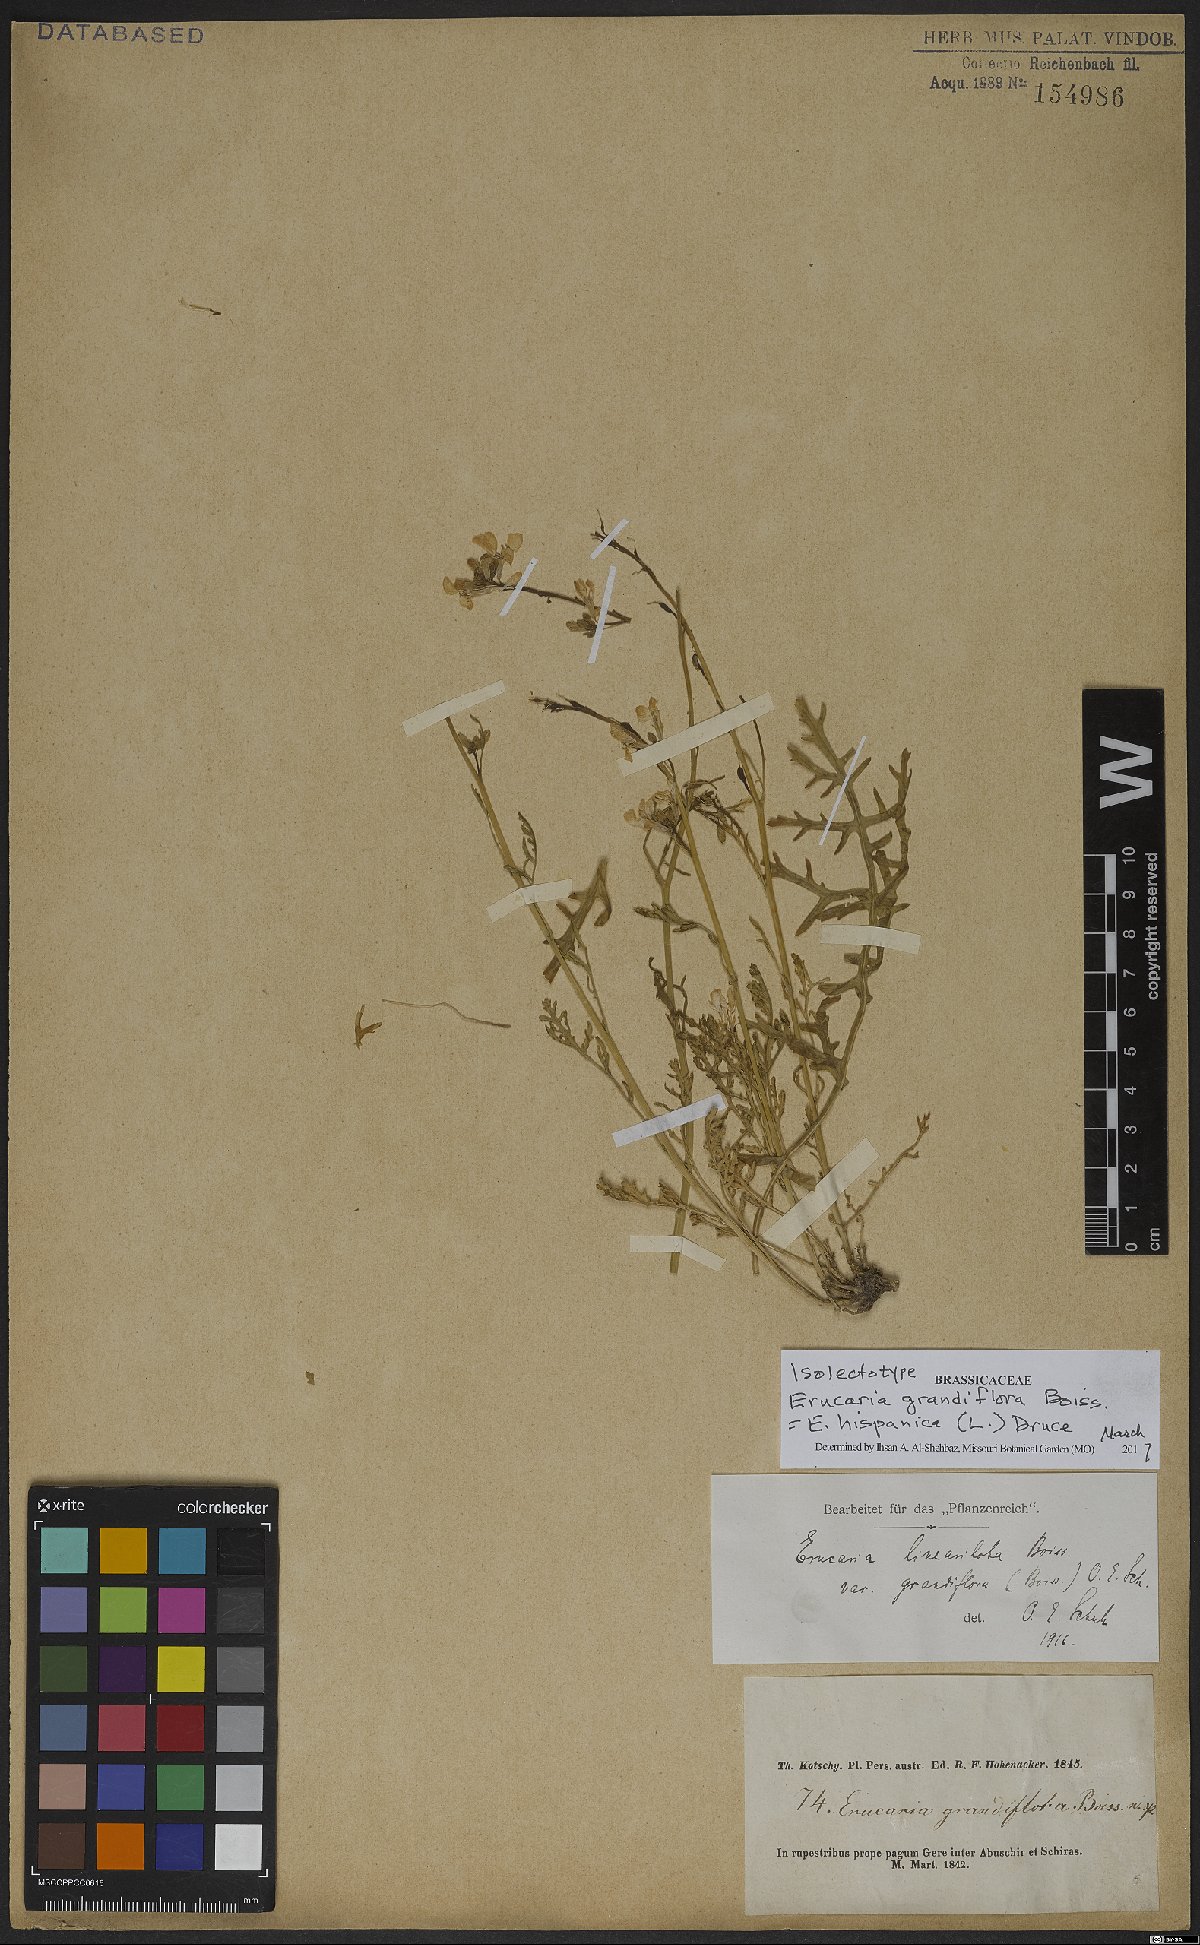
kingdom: Plantae
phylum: Tracheophyta
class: Magnoliopsida
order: Brassicales
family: Brassicaceae
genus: Erucaria
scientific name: Erucaria hispanica
